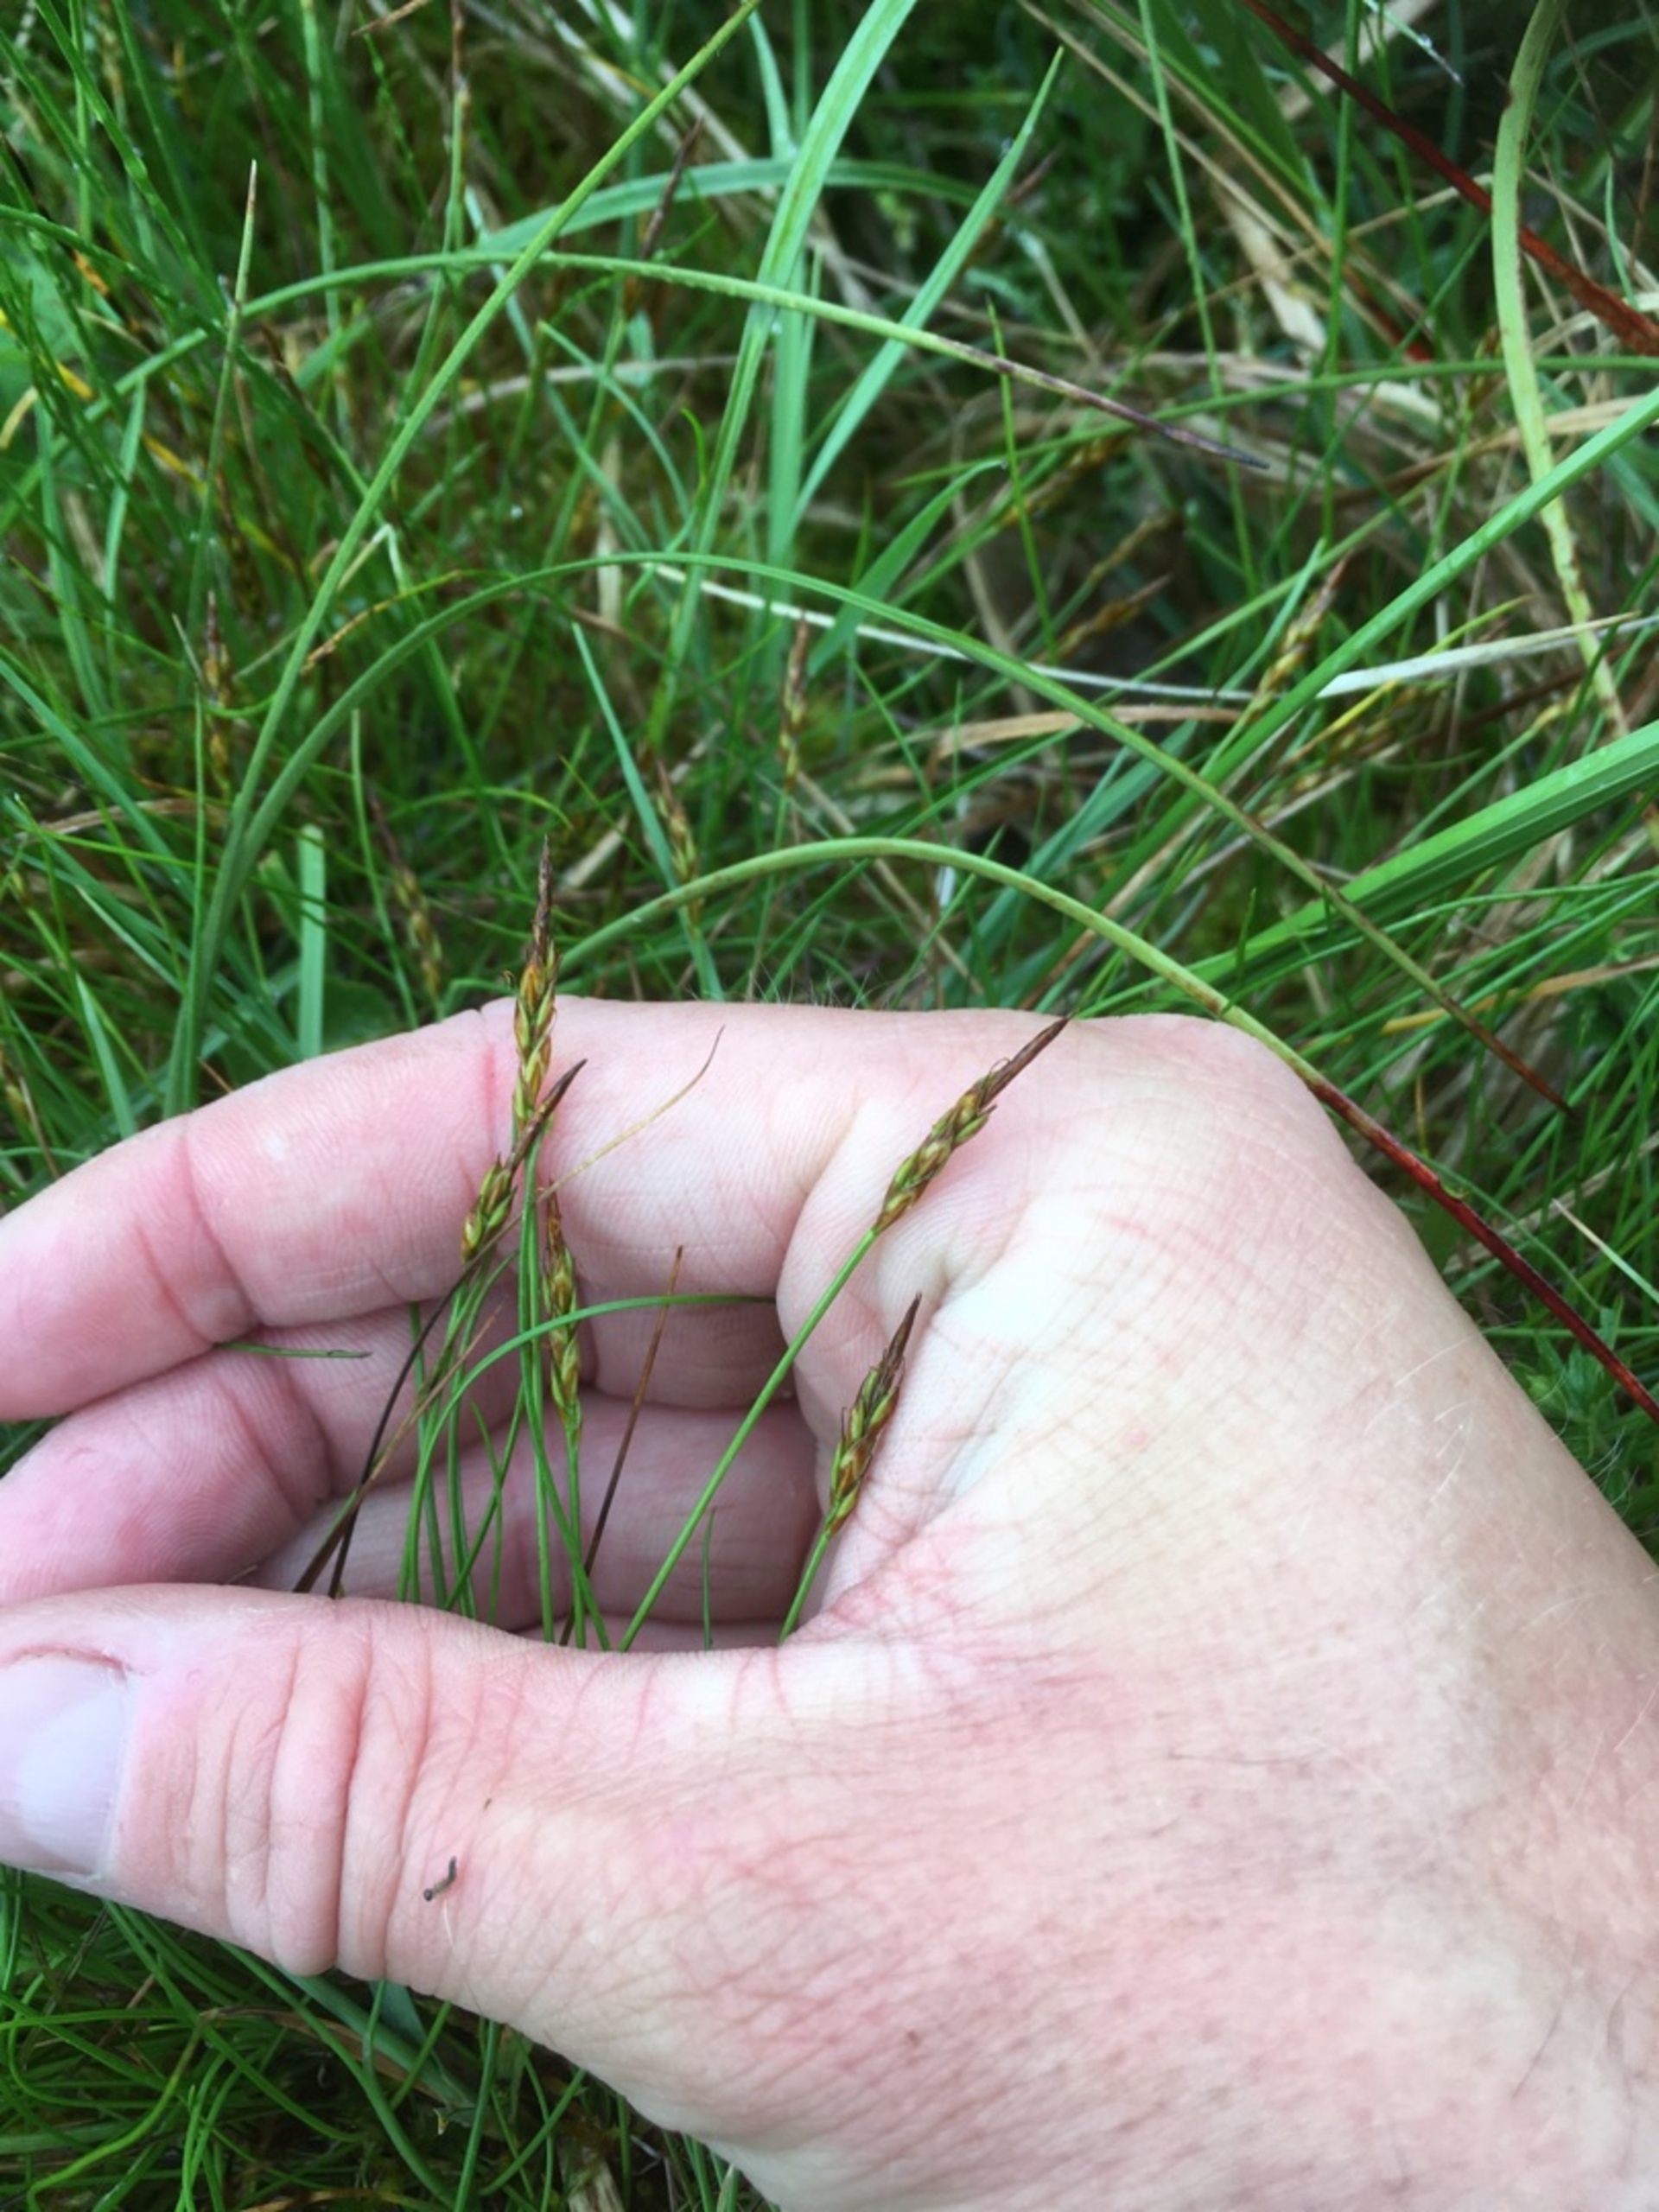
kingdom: Plantae
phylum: Tracheophyta
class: Liliopsida
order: Poales
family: Cyperaceae
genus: Carex
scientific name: Carex pulicaris
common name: Loppe-star
